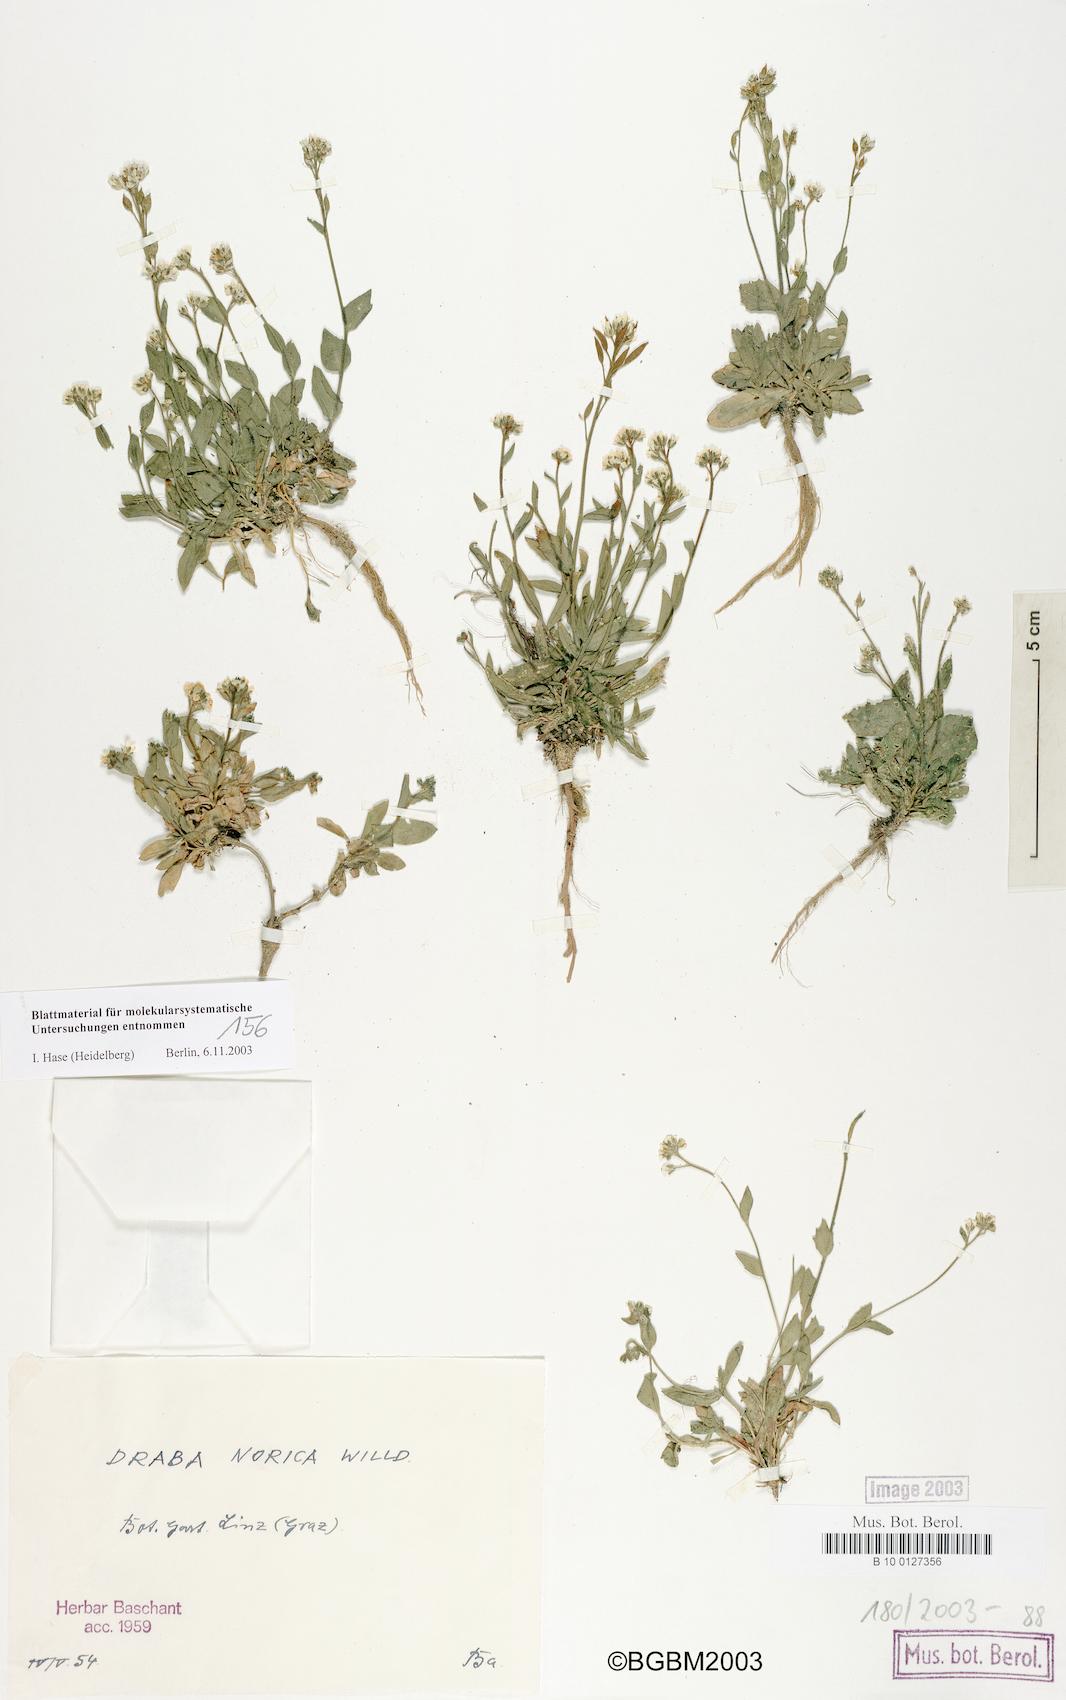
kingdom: Plantae
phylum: Tracheophyta
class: Magnoliopsida
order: Brassicales
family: Brassicaceae
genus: Draba
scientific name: Draba pacheri
